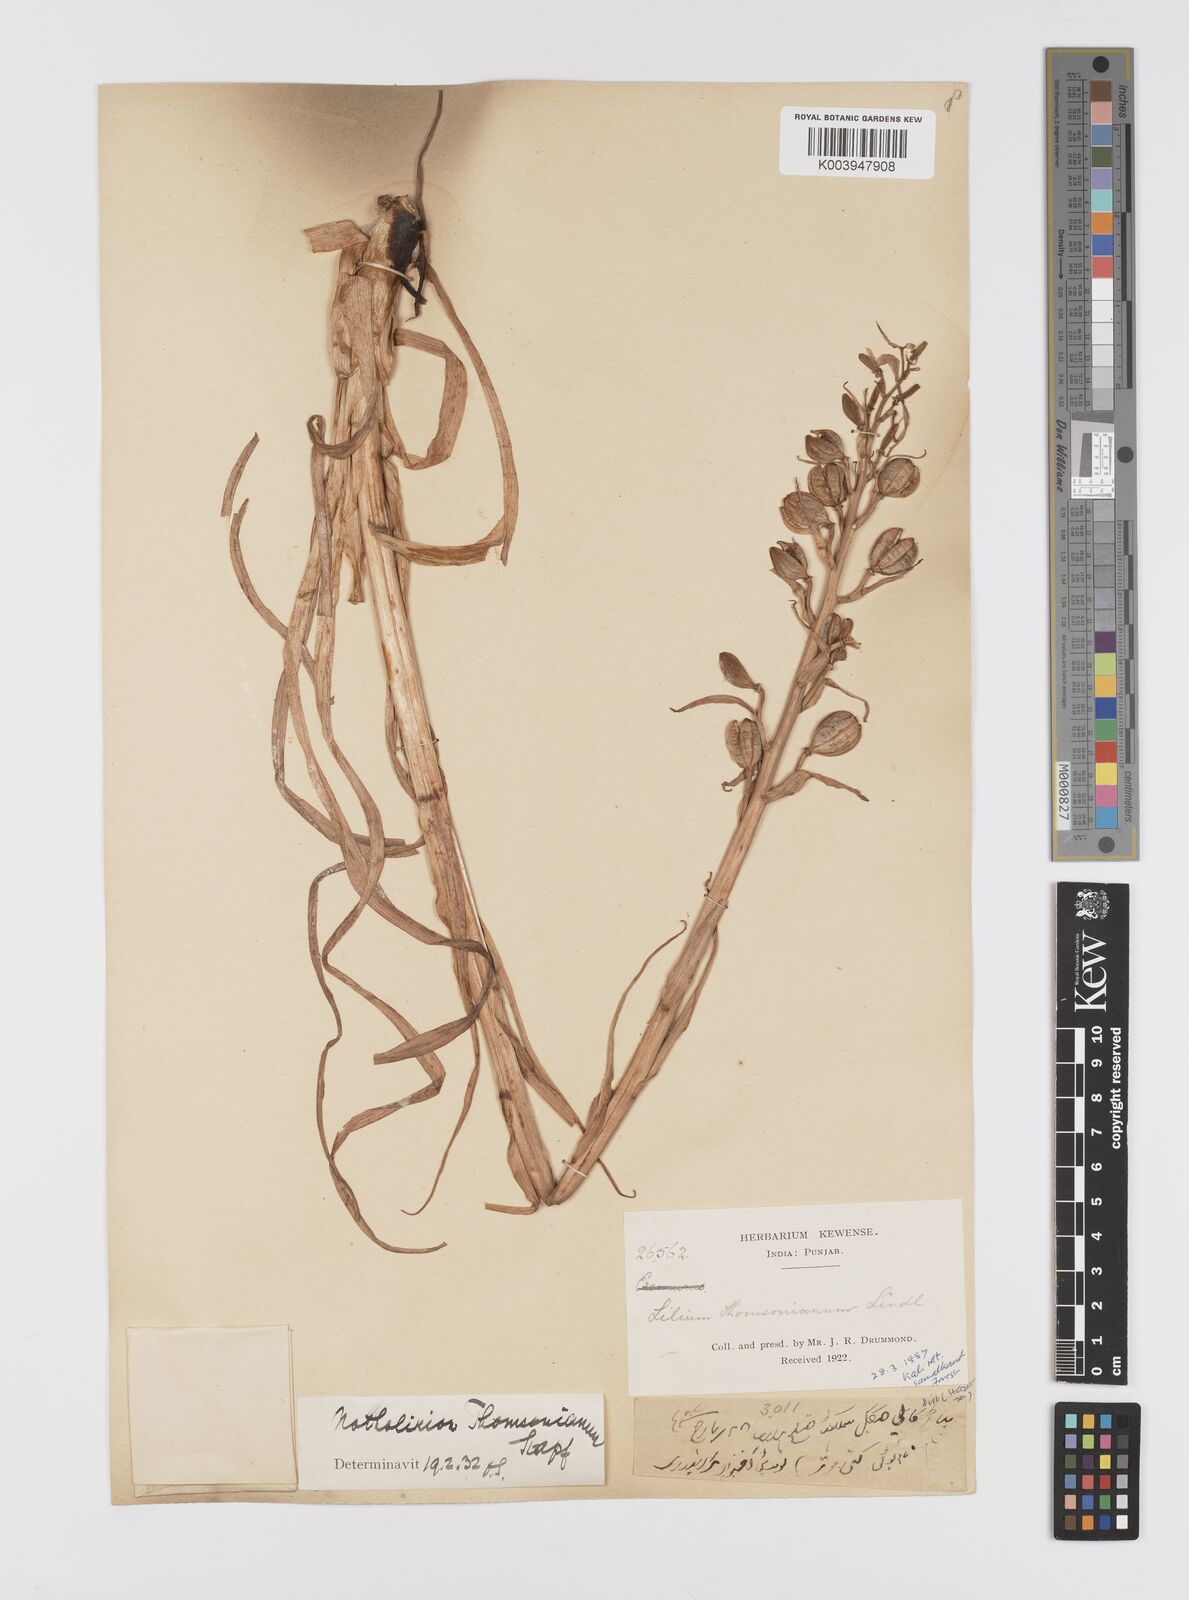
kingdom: Plantae
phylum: Tracheophyta
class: Liliopsida
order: Liliales
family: Liliaceae
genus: Notholirion
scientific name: Notholirion thomsonianum
